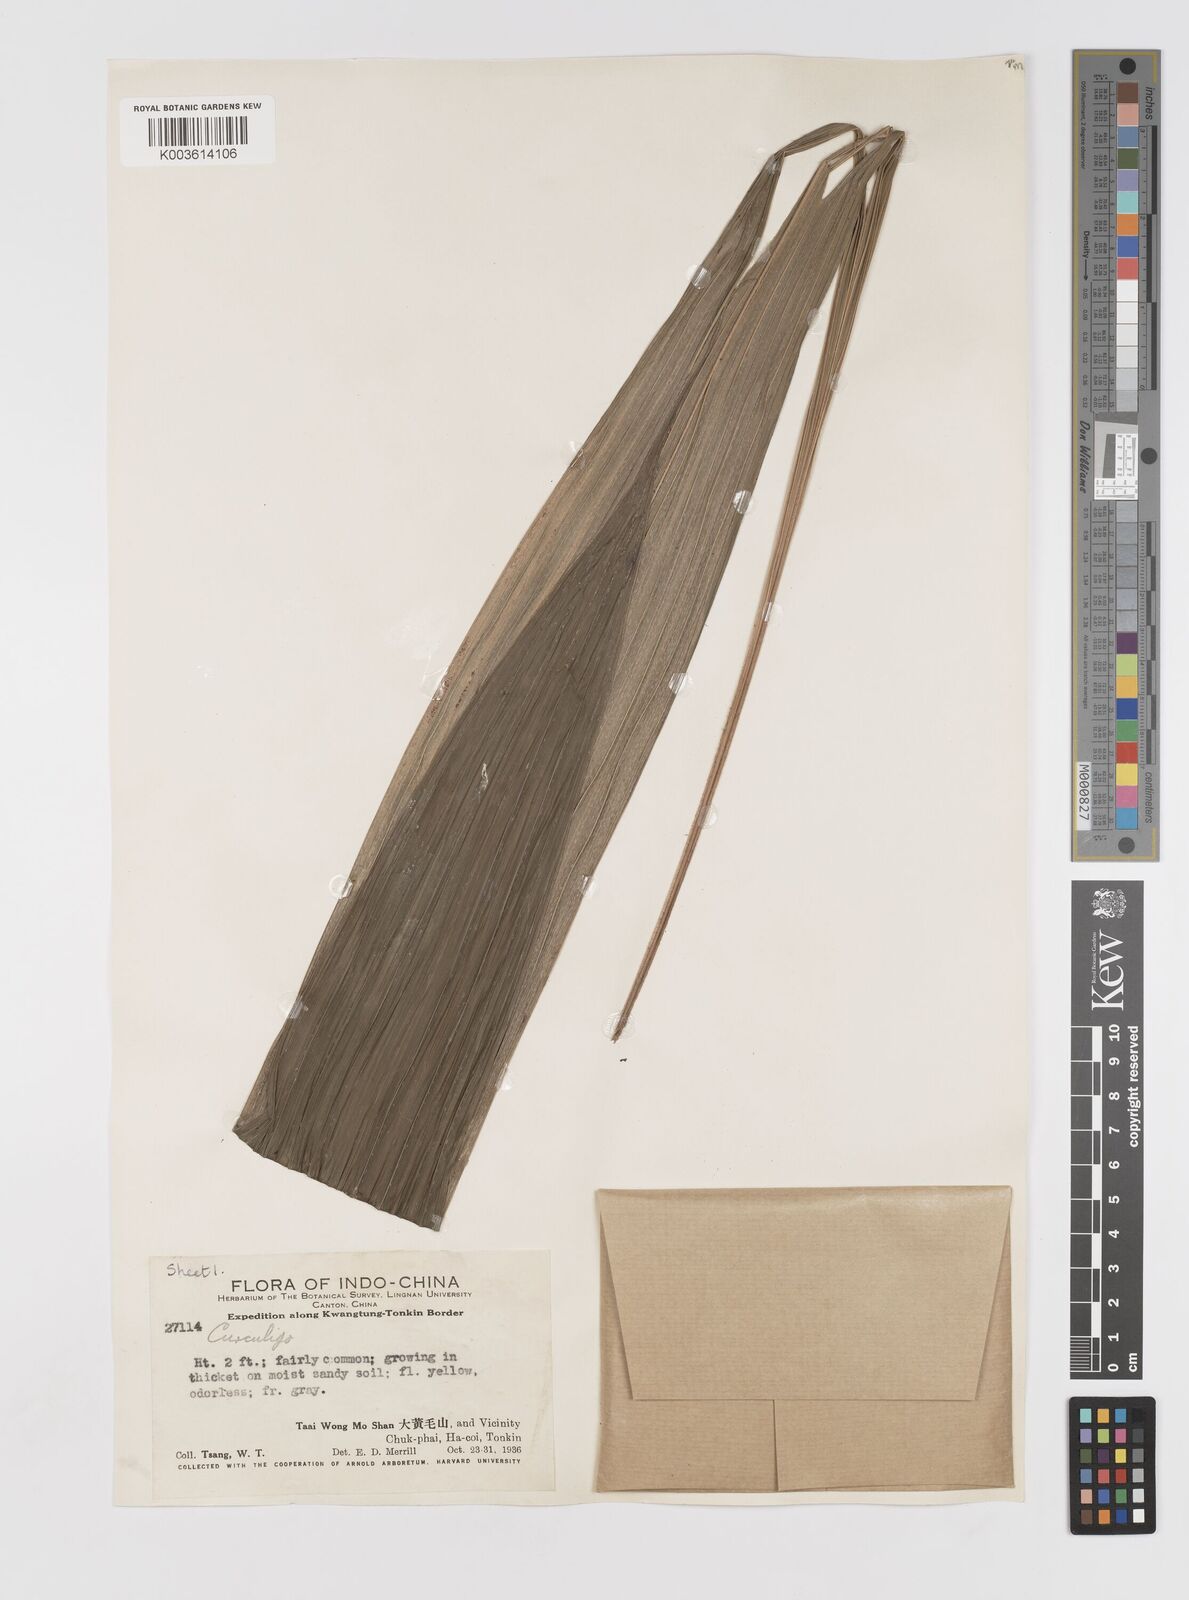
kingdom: Plantae
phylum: Tracheophyta
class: Liliopsida
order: Asparagales
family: Hypoxidaceae
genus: Curculigo
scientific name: Curculigo
